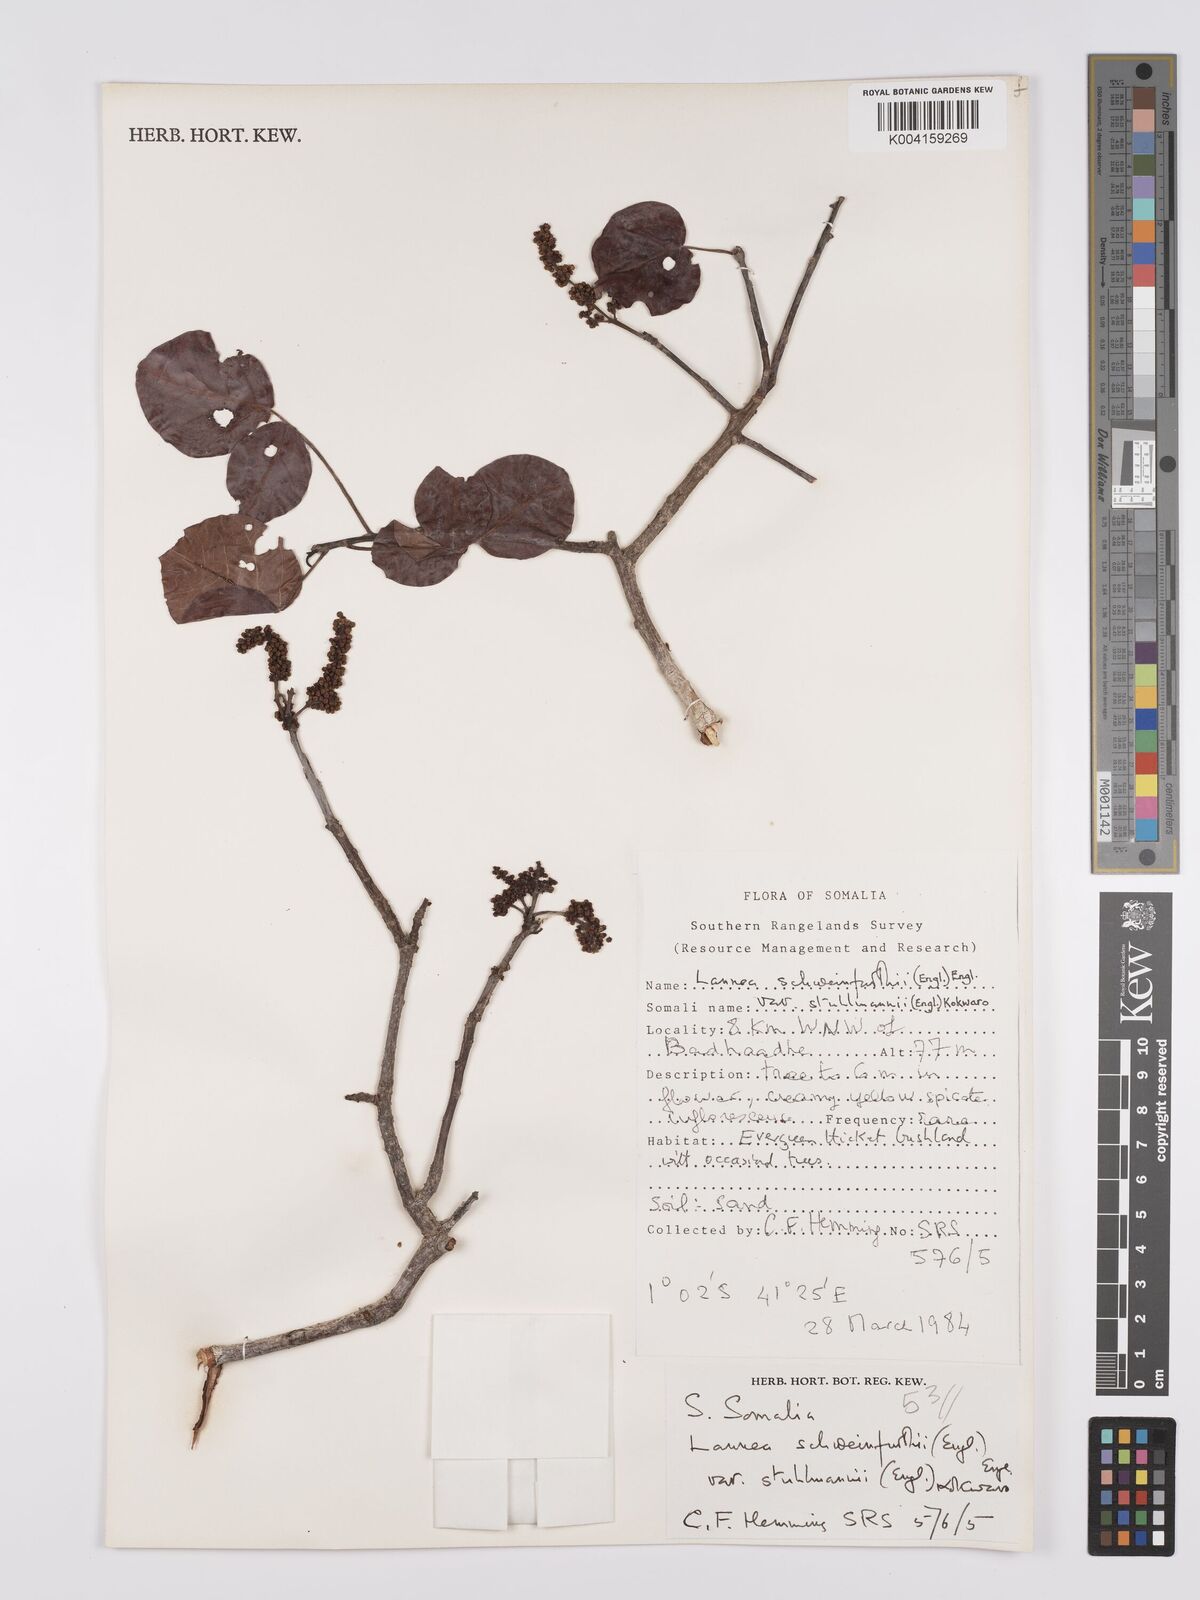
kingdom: Plantae
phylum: Tracheophyta
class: Magnoliopsida
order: Sapindales
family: Anacardiaceae
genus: Lannea
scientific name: Lannea schweinfurthii
